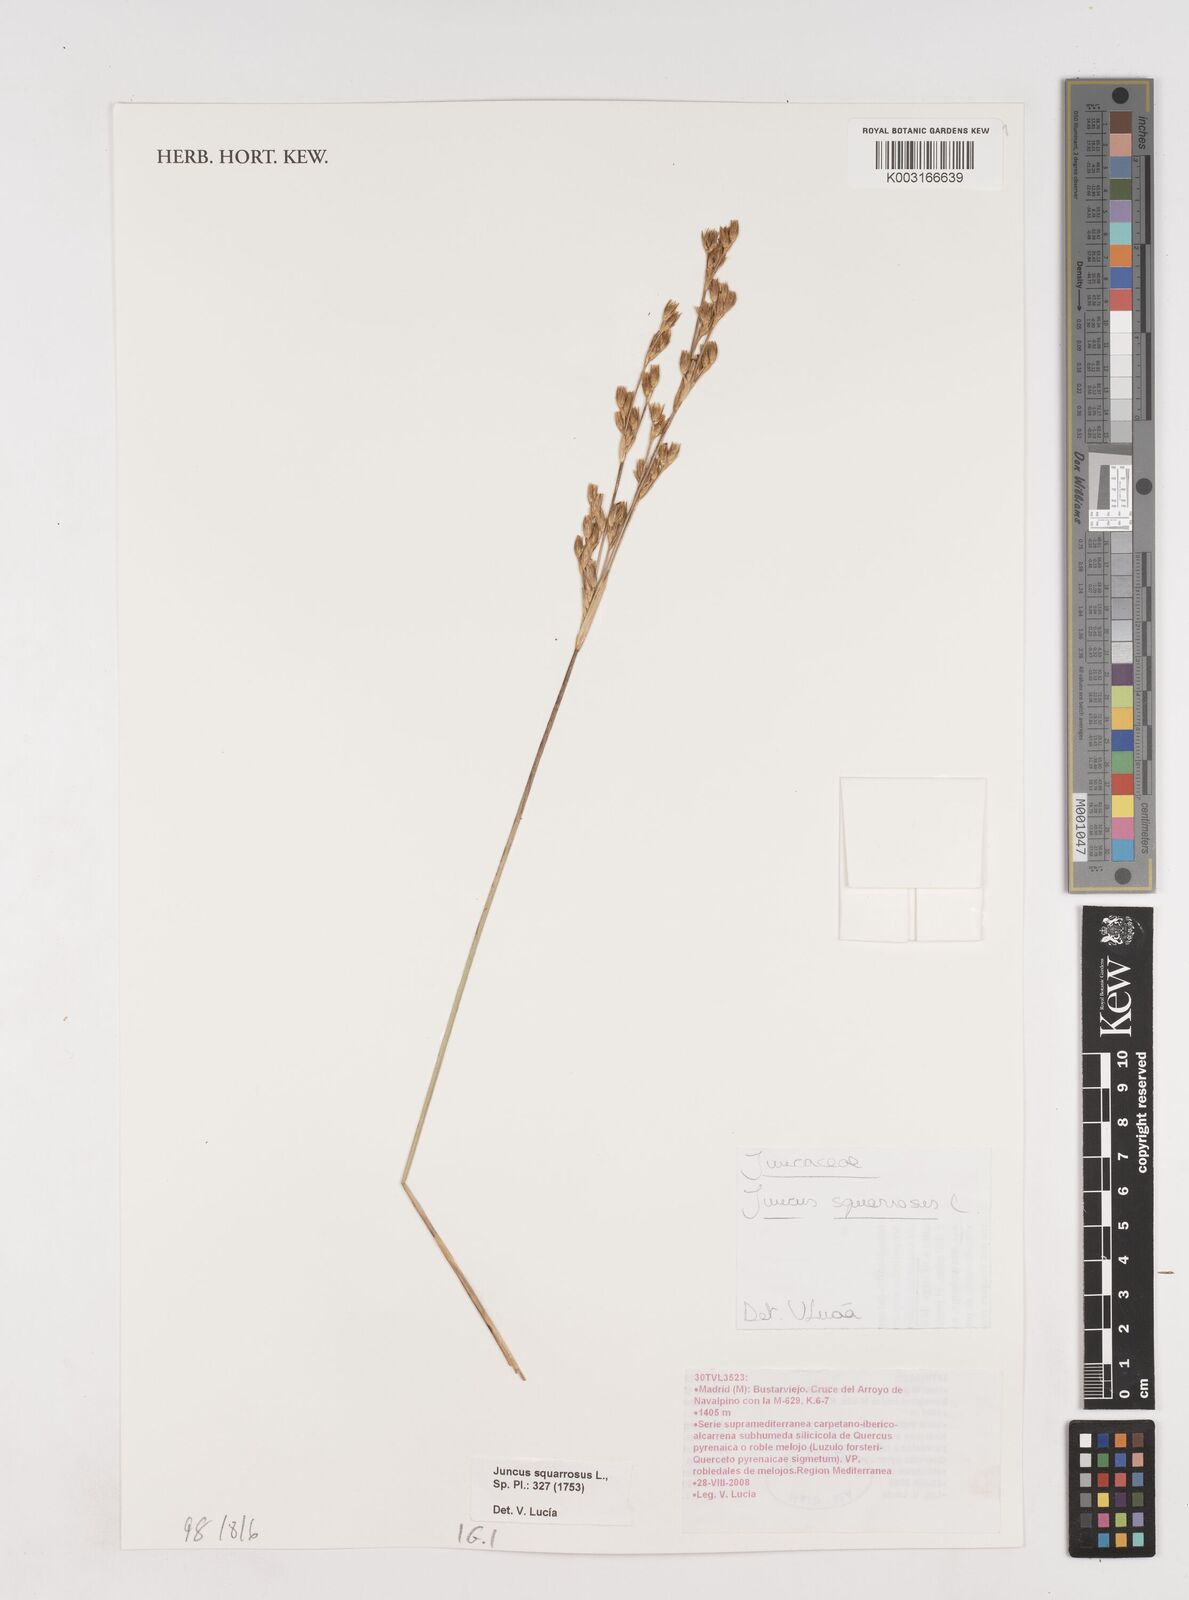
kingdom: Plantae
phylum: Tracheophyta
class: Liliopsida
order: Poales
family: Juncaceae
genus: Juncus
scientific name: Juncus squarrosus
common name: Heath rush
